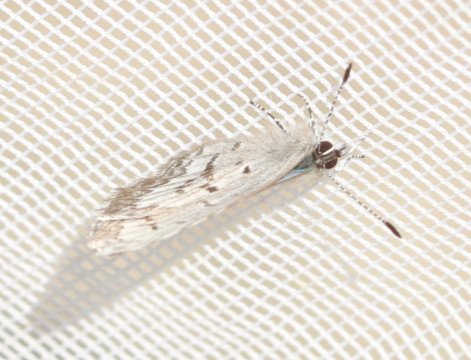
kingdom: Animalia
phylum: Arthropoda
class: Insecta
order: Lepidoptera
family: Lycaenidae
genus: Celastrina
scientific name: Celastrina lucia
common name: Northern Spring Azure
